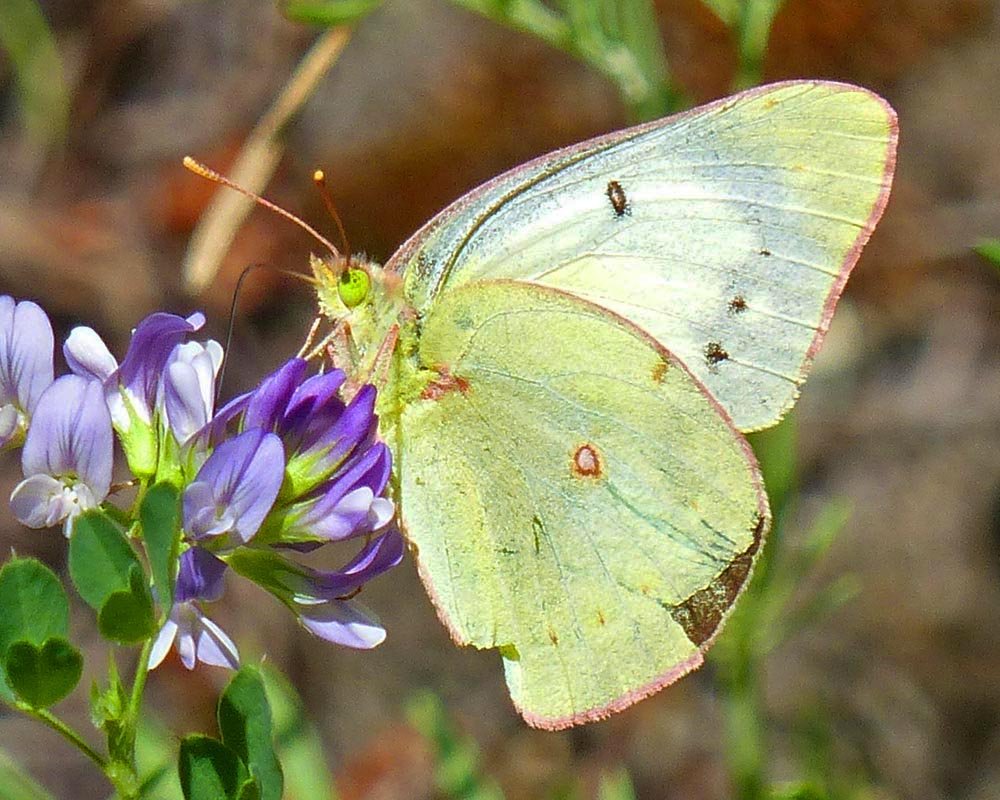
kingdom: Animalia
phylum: Arthropoda
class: Insecta
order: Lepidoptera
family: Pieridae
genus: Colias
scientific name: Colias philodice
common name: Clouded Sulphur
